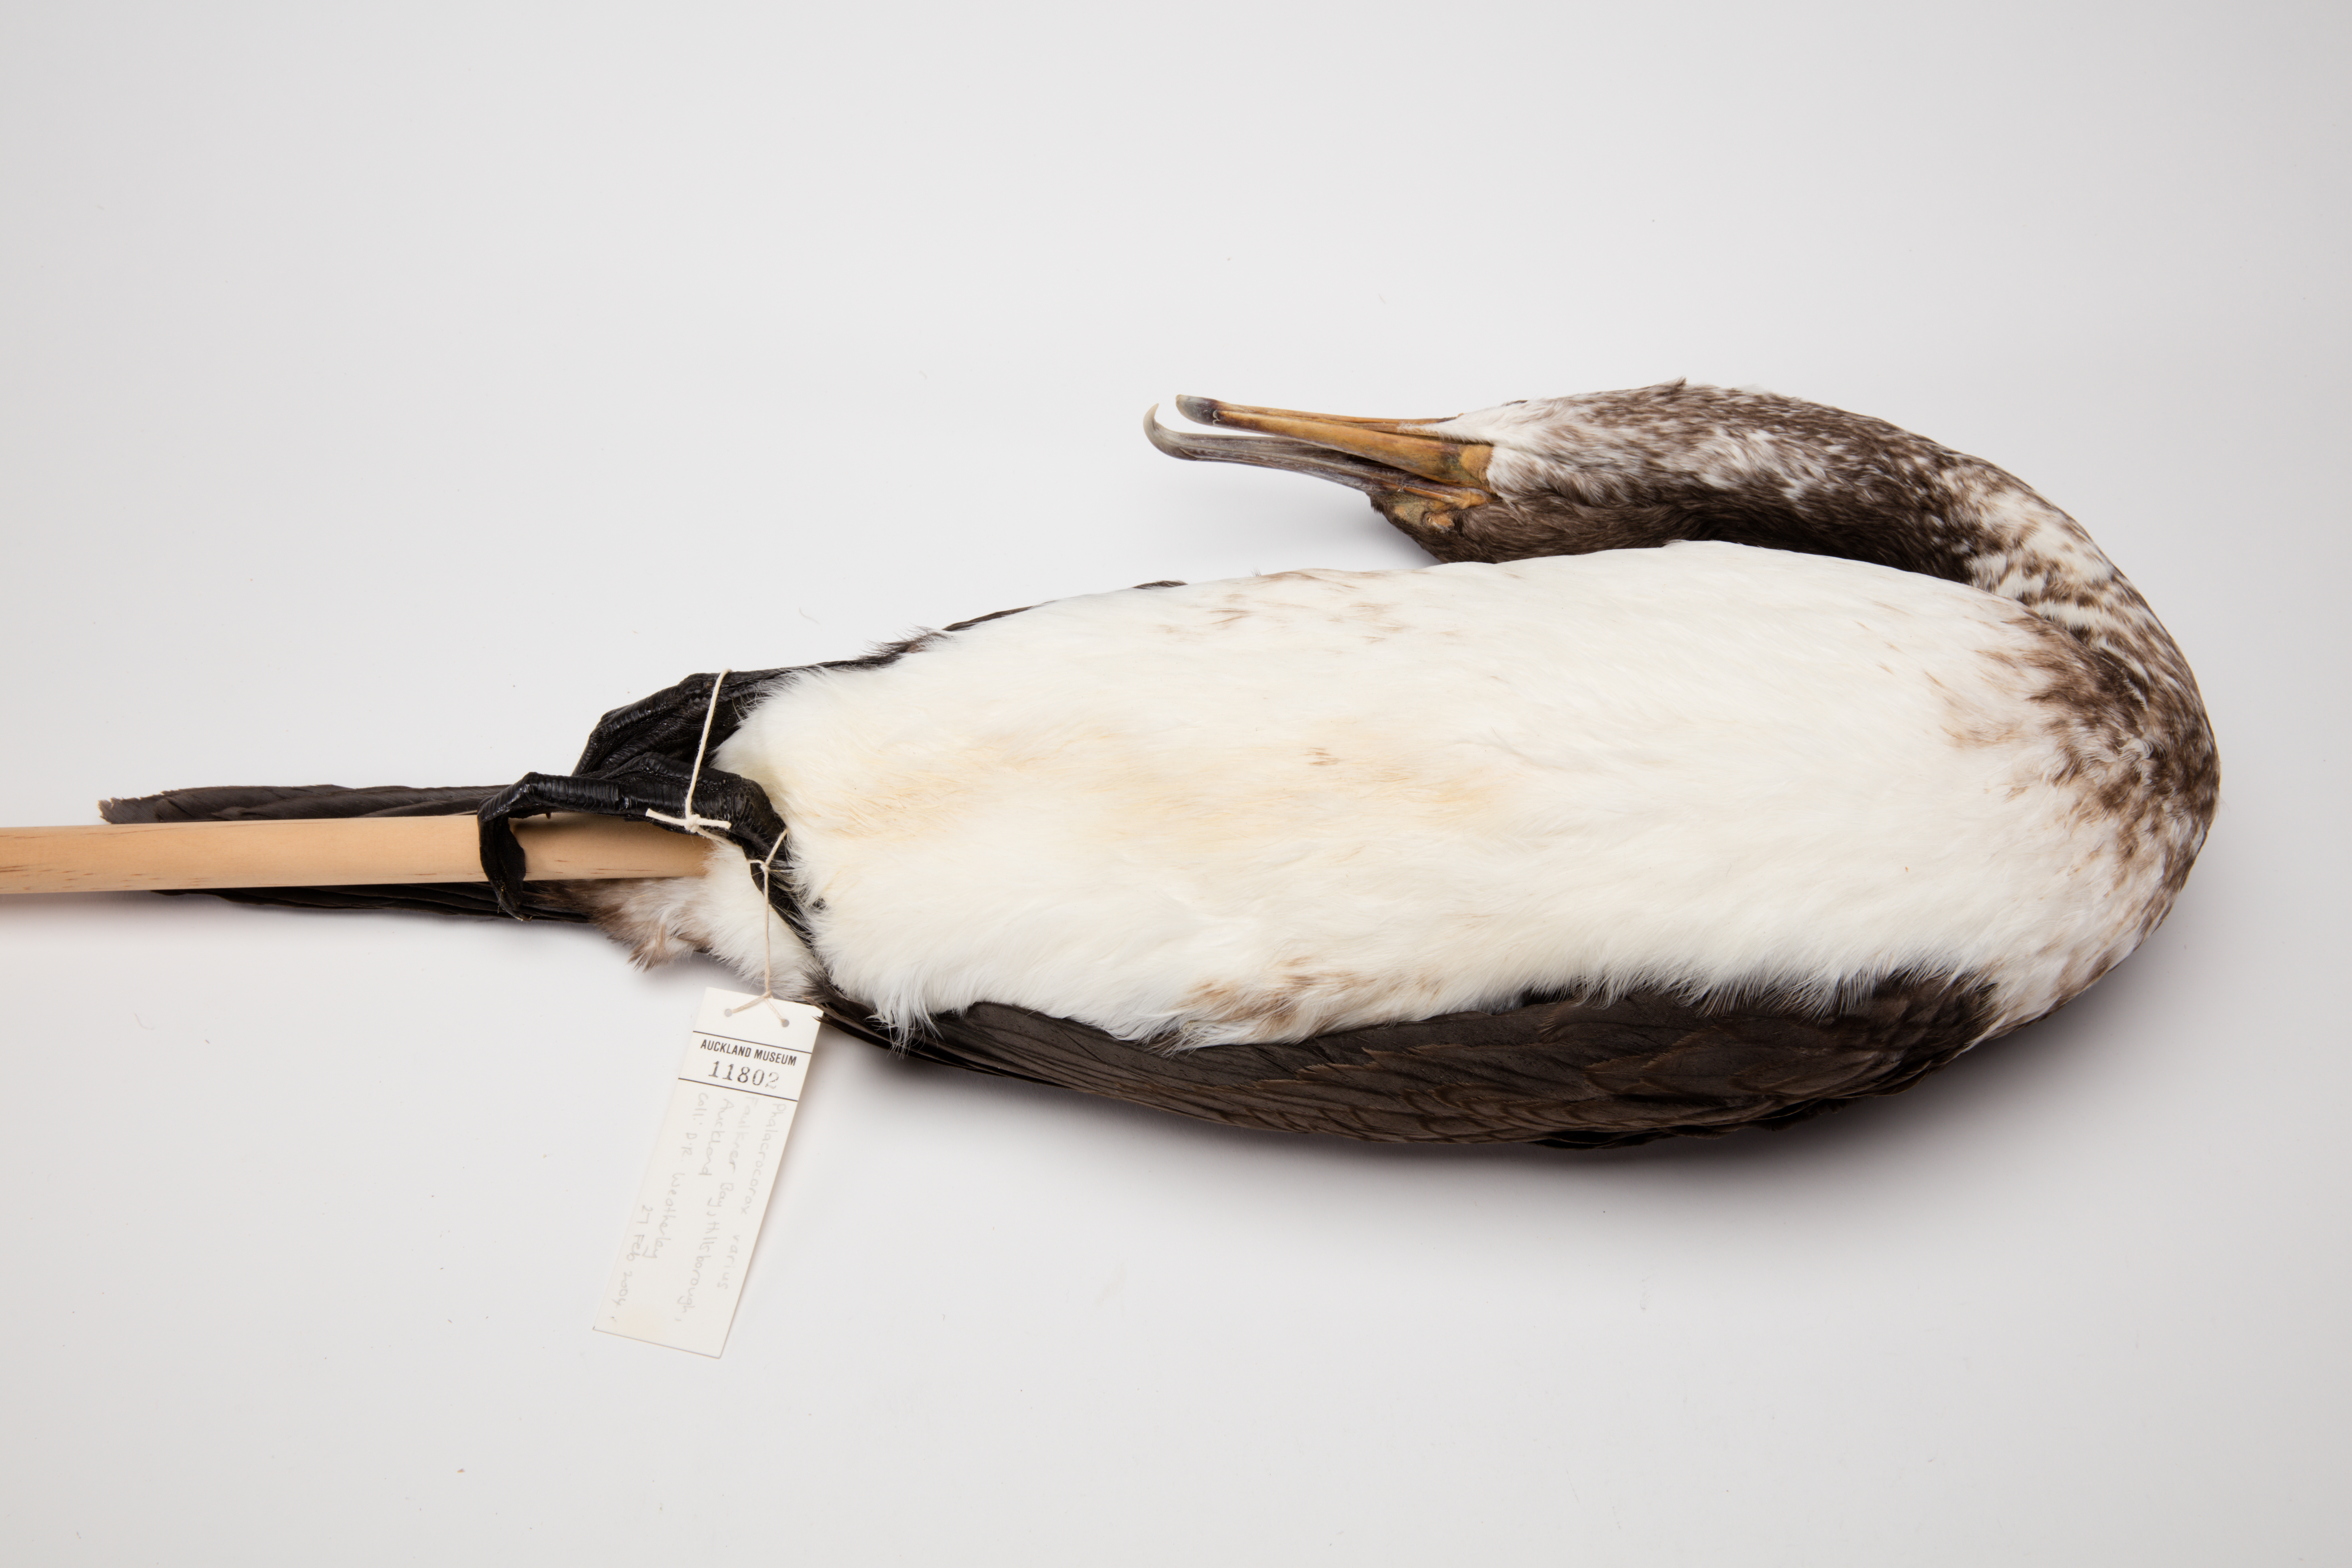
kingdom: Animalia
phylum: Chordata
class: Aves
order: Suliformes
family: Phalacrocoracidae
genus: Phalacrocorax
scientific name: Phalacrocorax varius
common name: Pied cormorant
